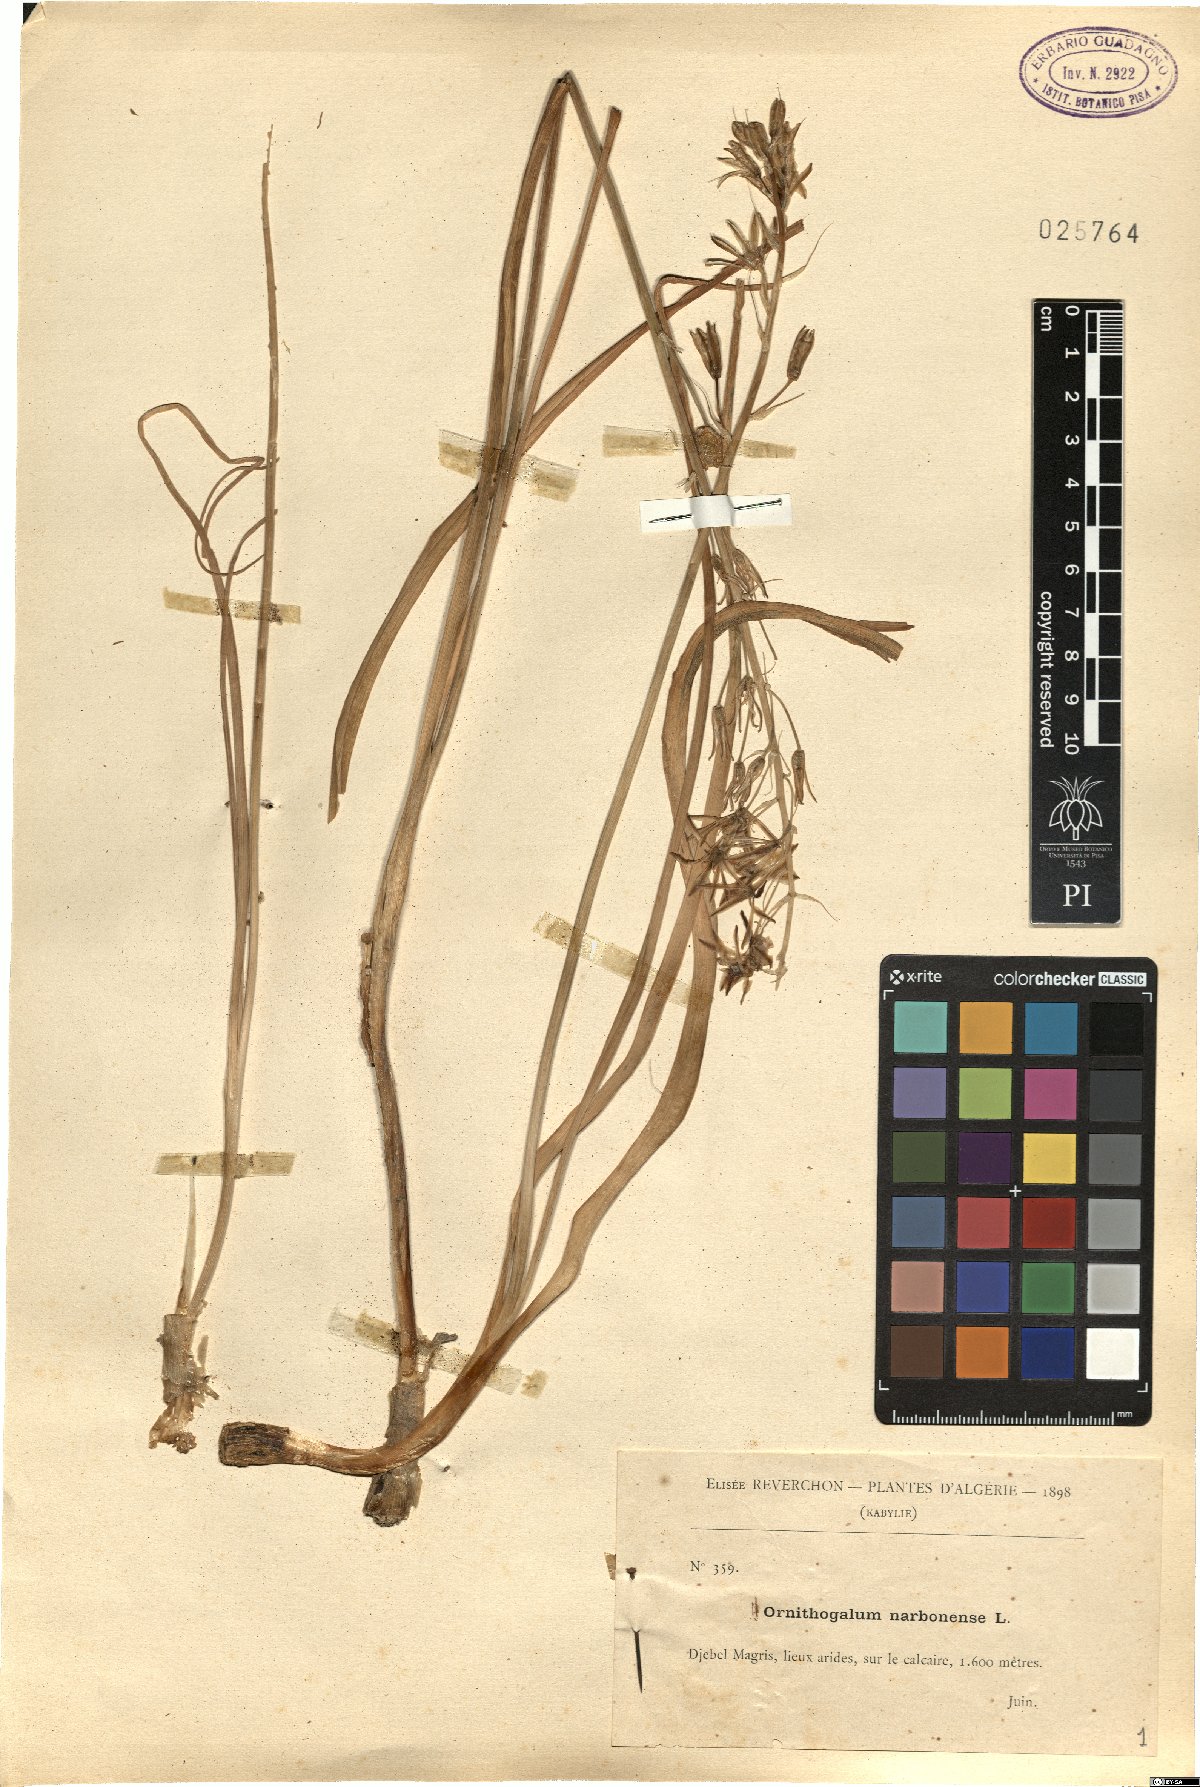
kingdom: Plantae
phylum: Tracheophyta
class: Liliopsida
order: Asparagales
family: Asparagaceae
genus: Ornithogalum
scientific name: Ornithogalum narbonense
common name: Bath-asparagus
